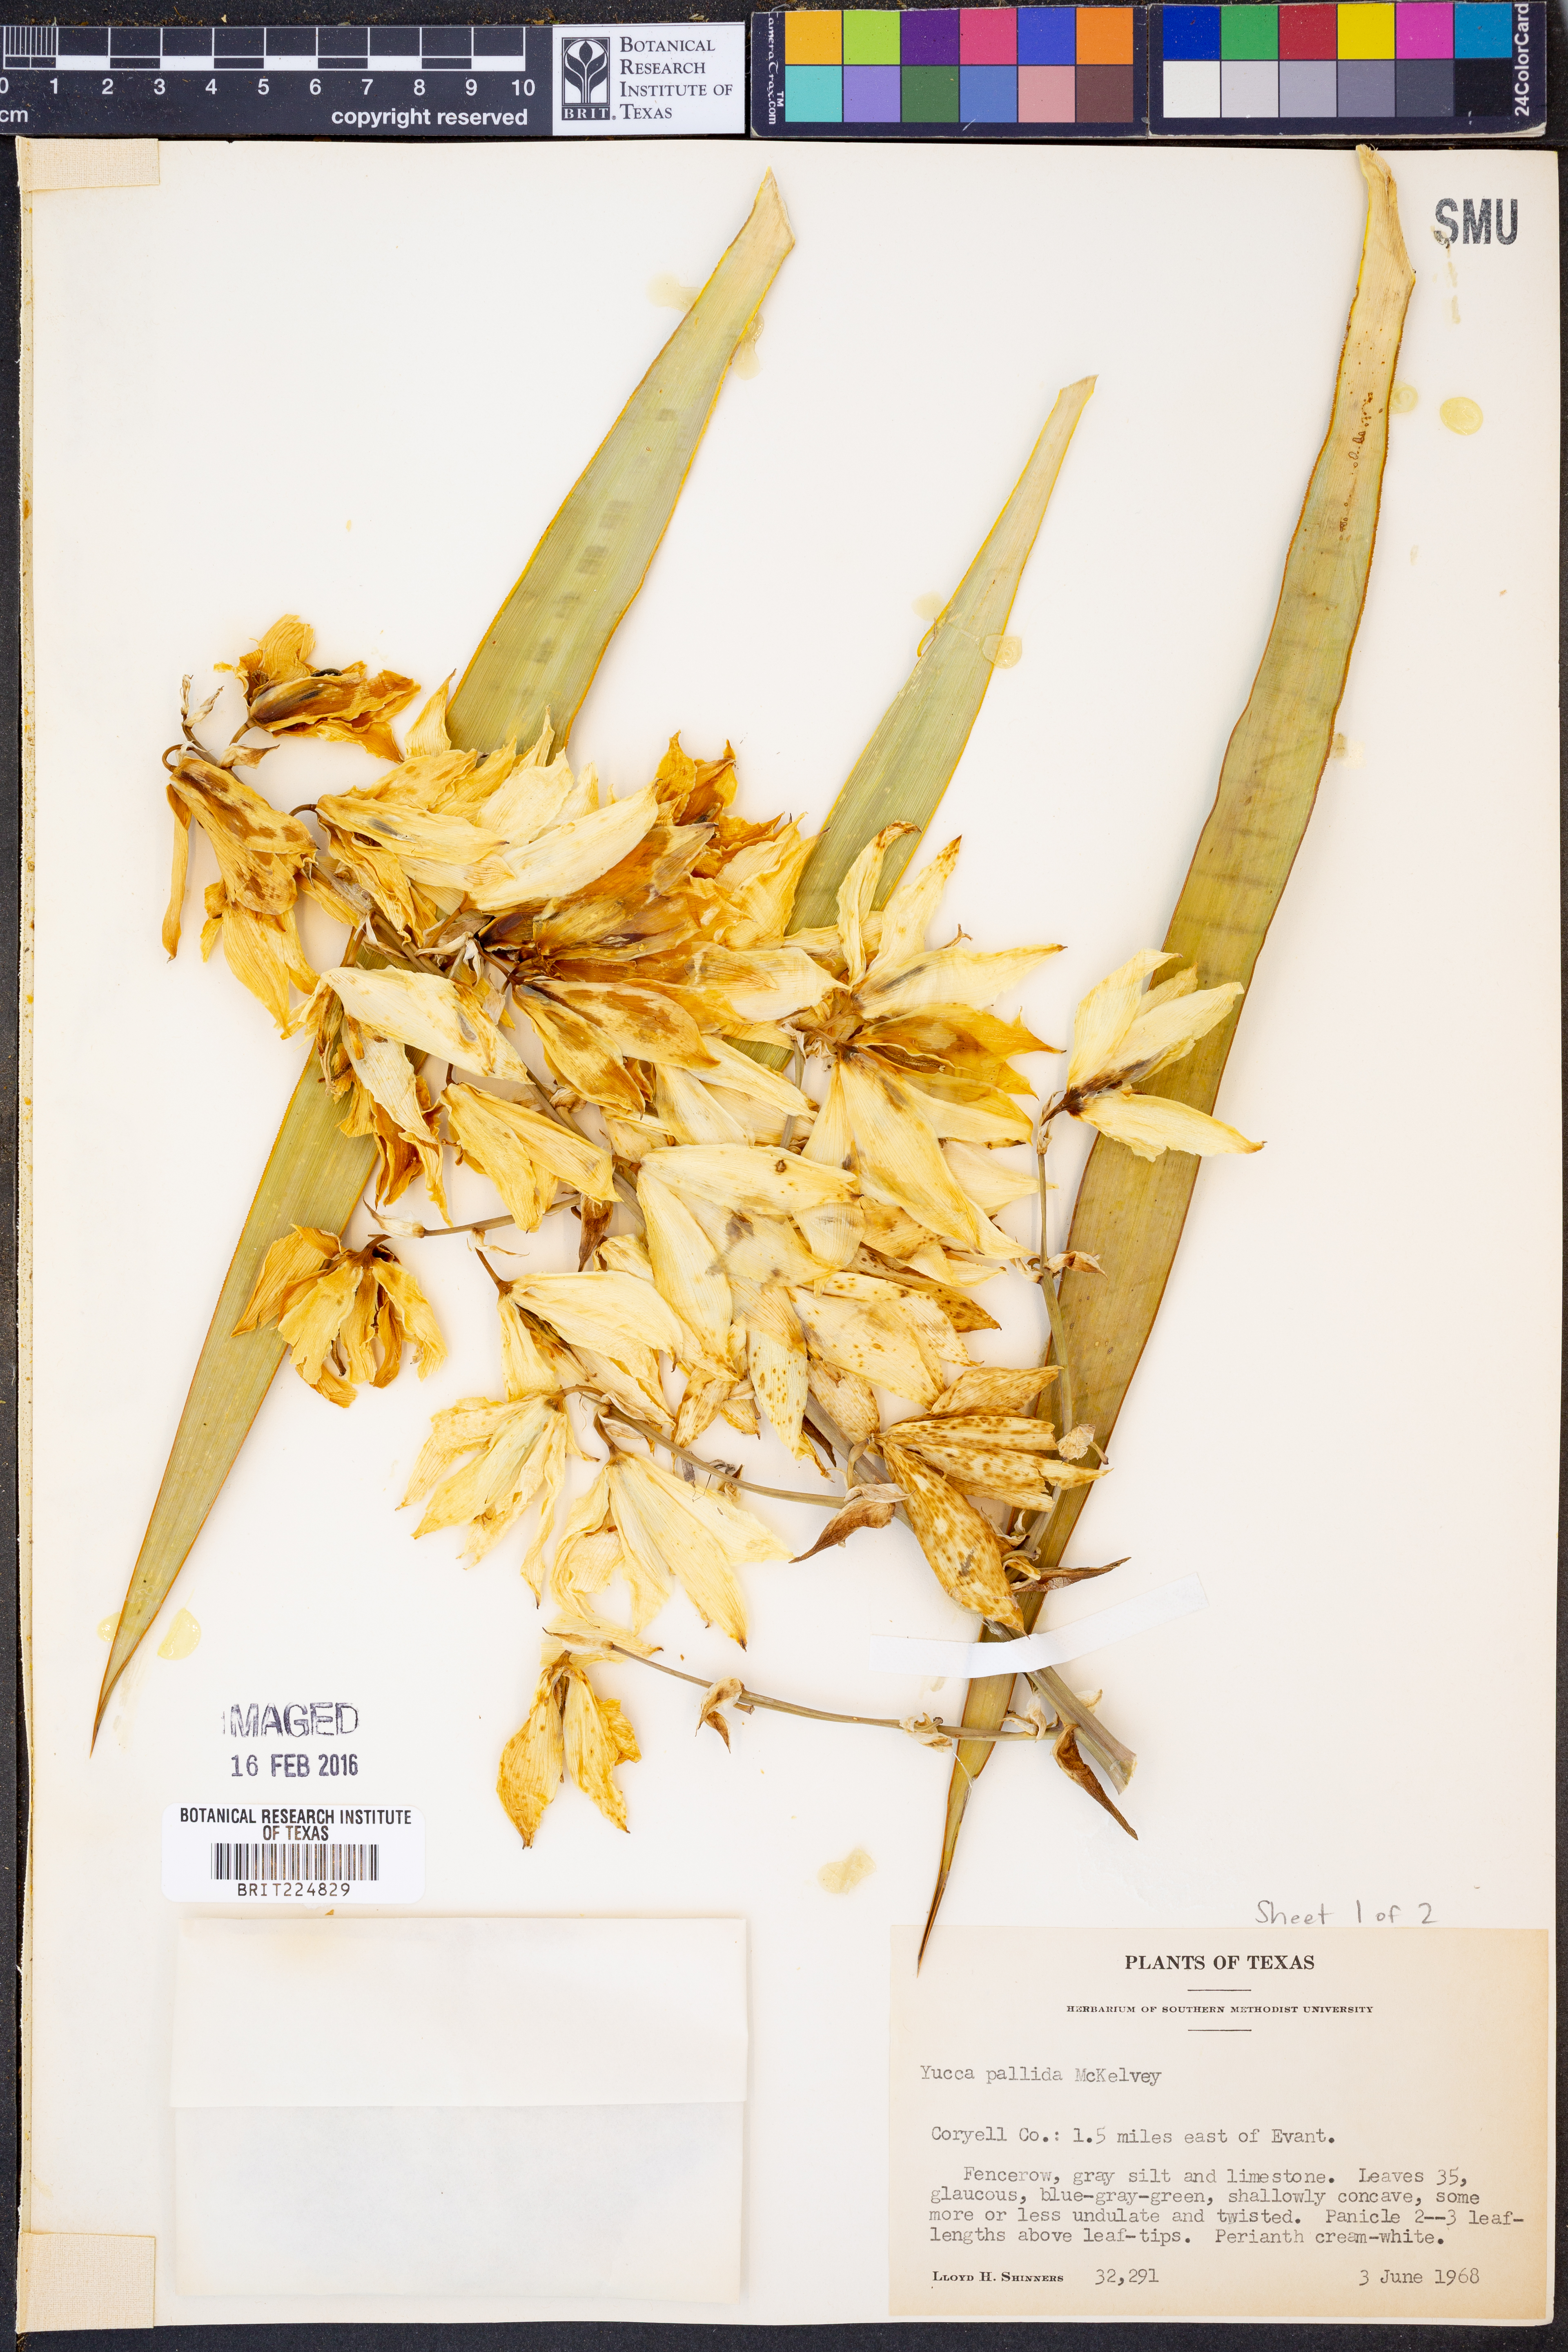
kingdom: Plantae
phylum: Tracheophyta
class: Liliopsida
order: Asparagales
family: Asparagaceae
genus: Yucca
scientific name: Yucca pallida
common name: Pale leaf yucca
